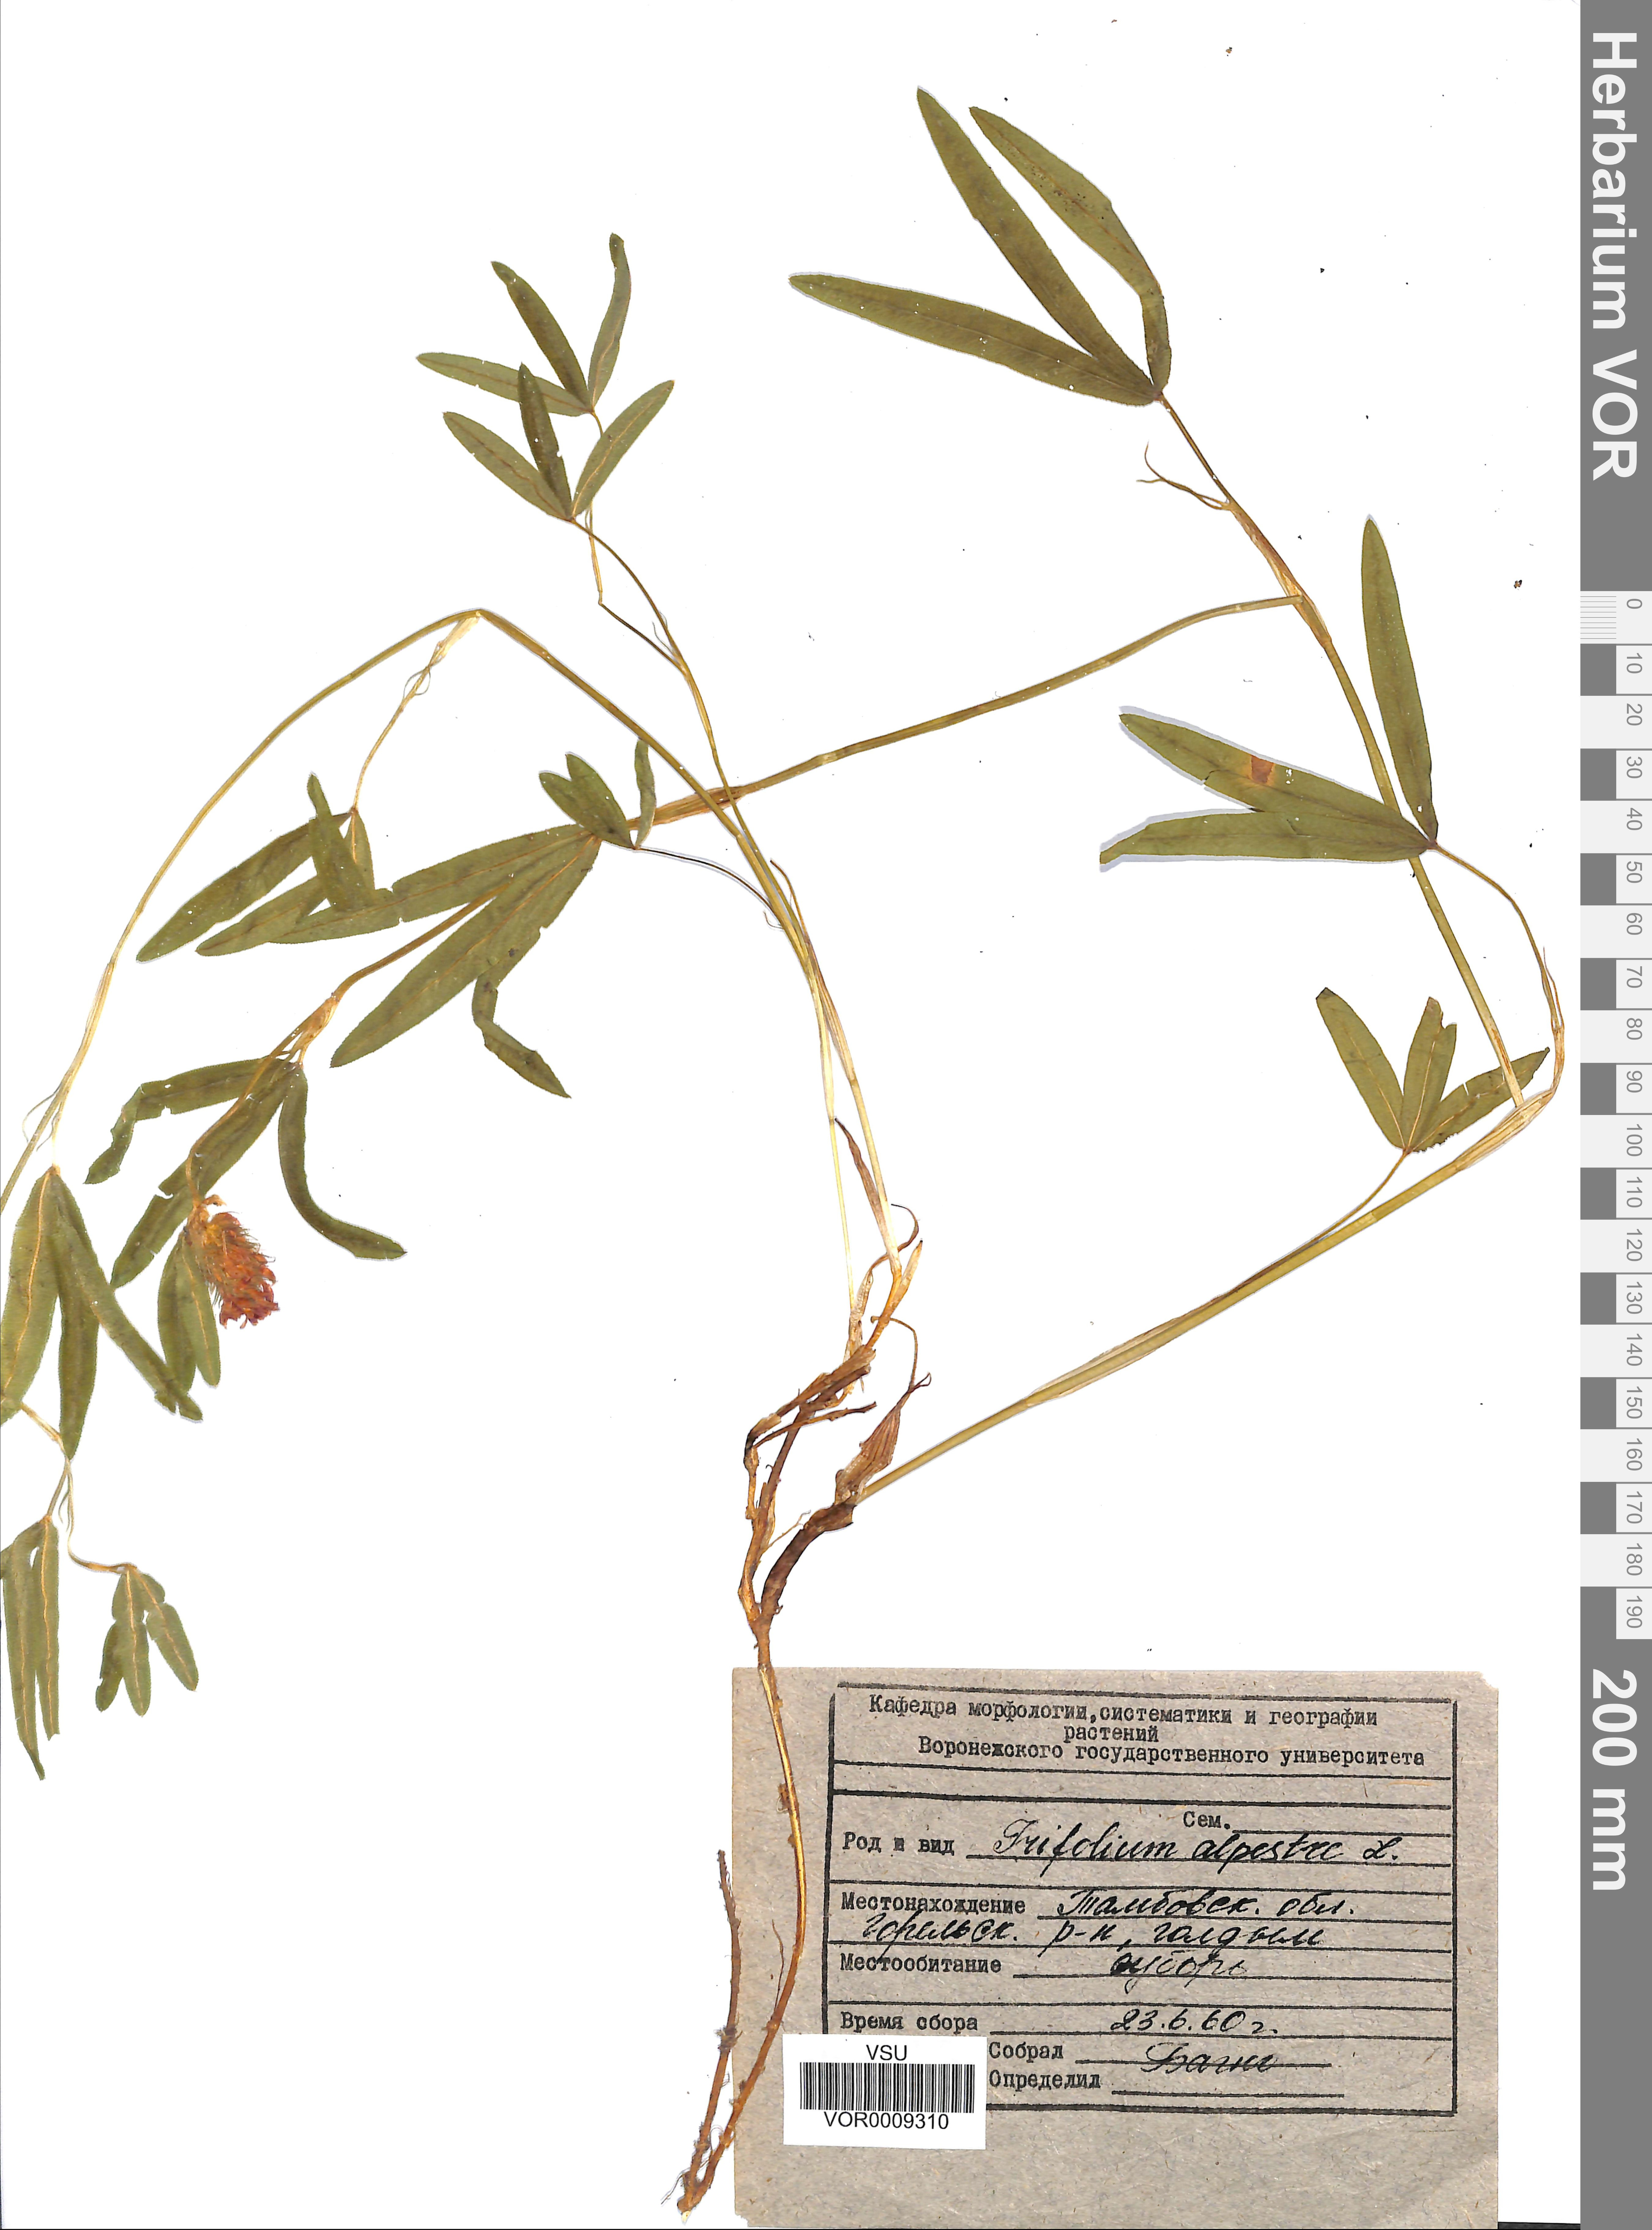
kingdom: Plantae
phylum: Tracheophyta
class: Magnoliopsida
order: Fabales
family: Fabaceae
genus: Trifolium
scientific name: Trifolium alpestre
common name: Owl-head clover
